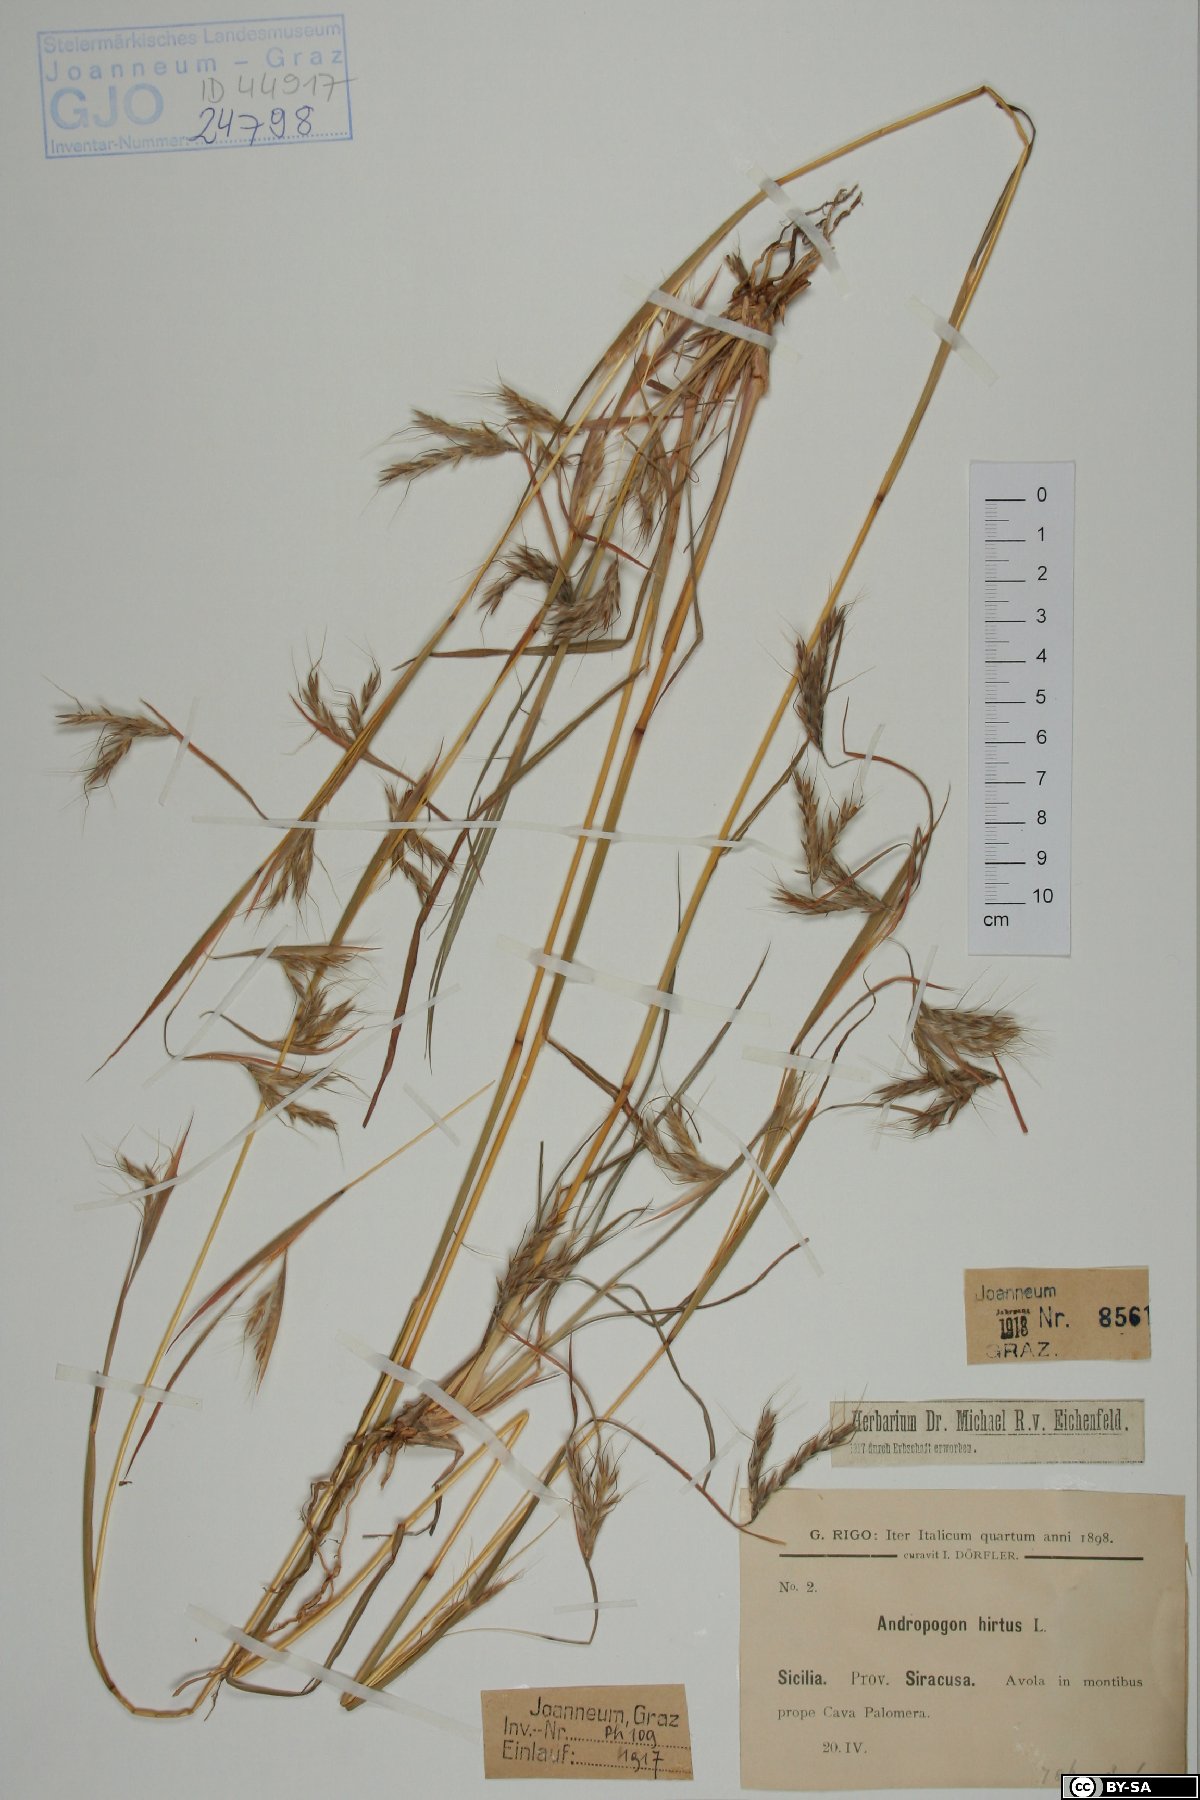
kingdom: Plantae
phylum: Tracheophyta
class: Liliopsida
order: Poales
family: Poaceae
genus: Hyparrhenia
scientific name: Hyparrhenia hirta
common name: Thatching grass
